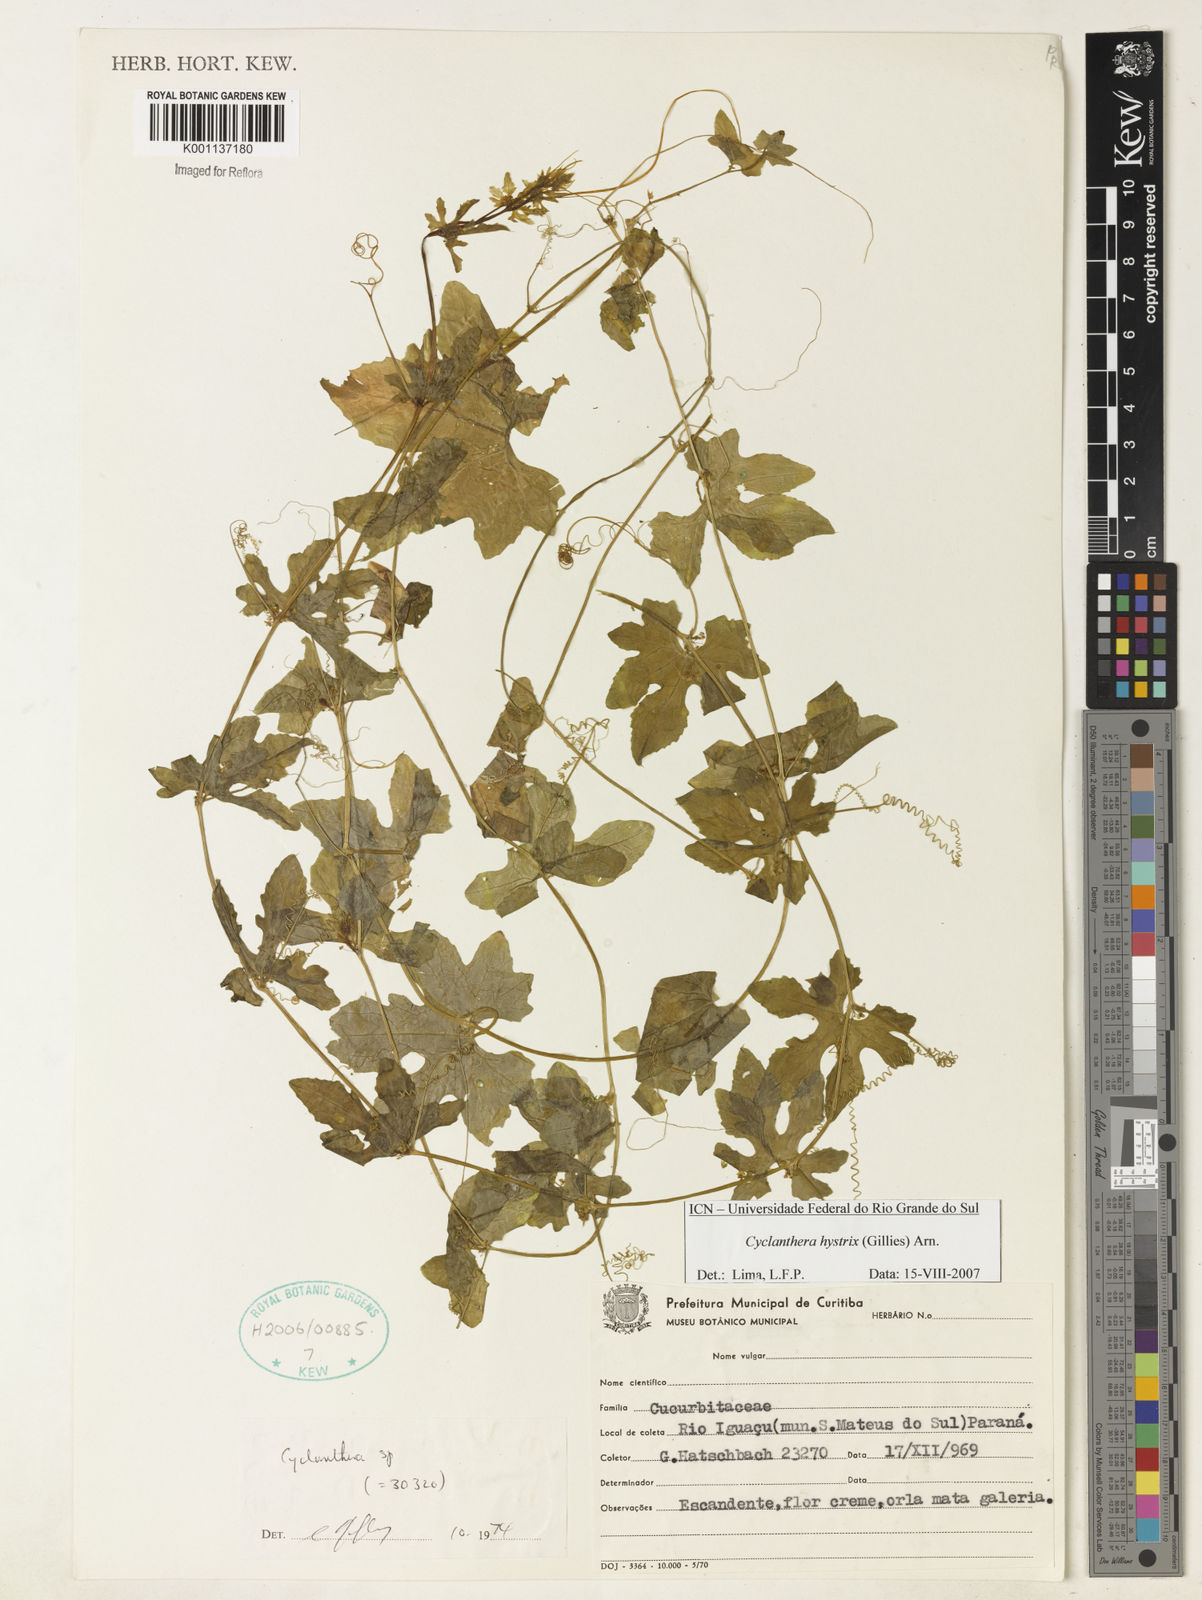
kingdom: Plantae
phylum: Tracheophyta
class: Magnoliopsida
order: Cucurbitales
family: Cucurbitaceae
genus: Cyclanthera
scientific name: Cyclanthera hystrix
